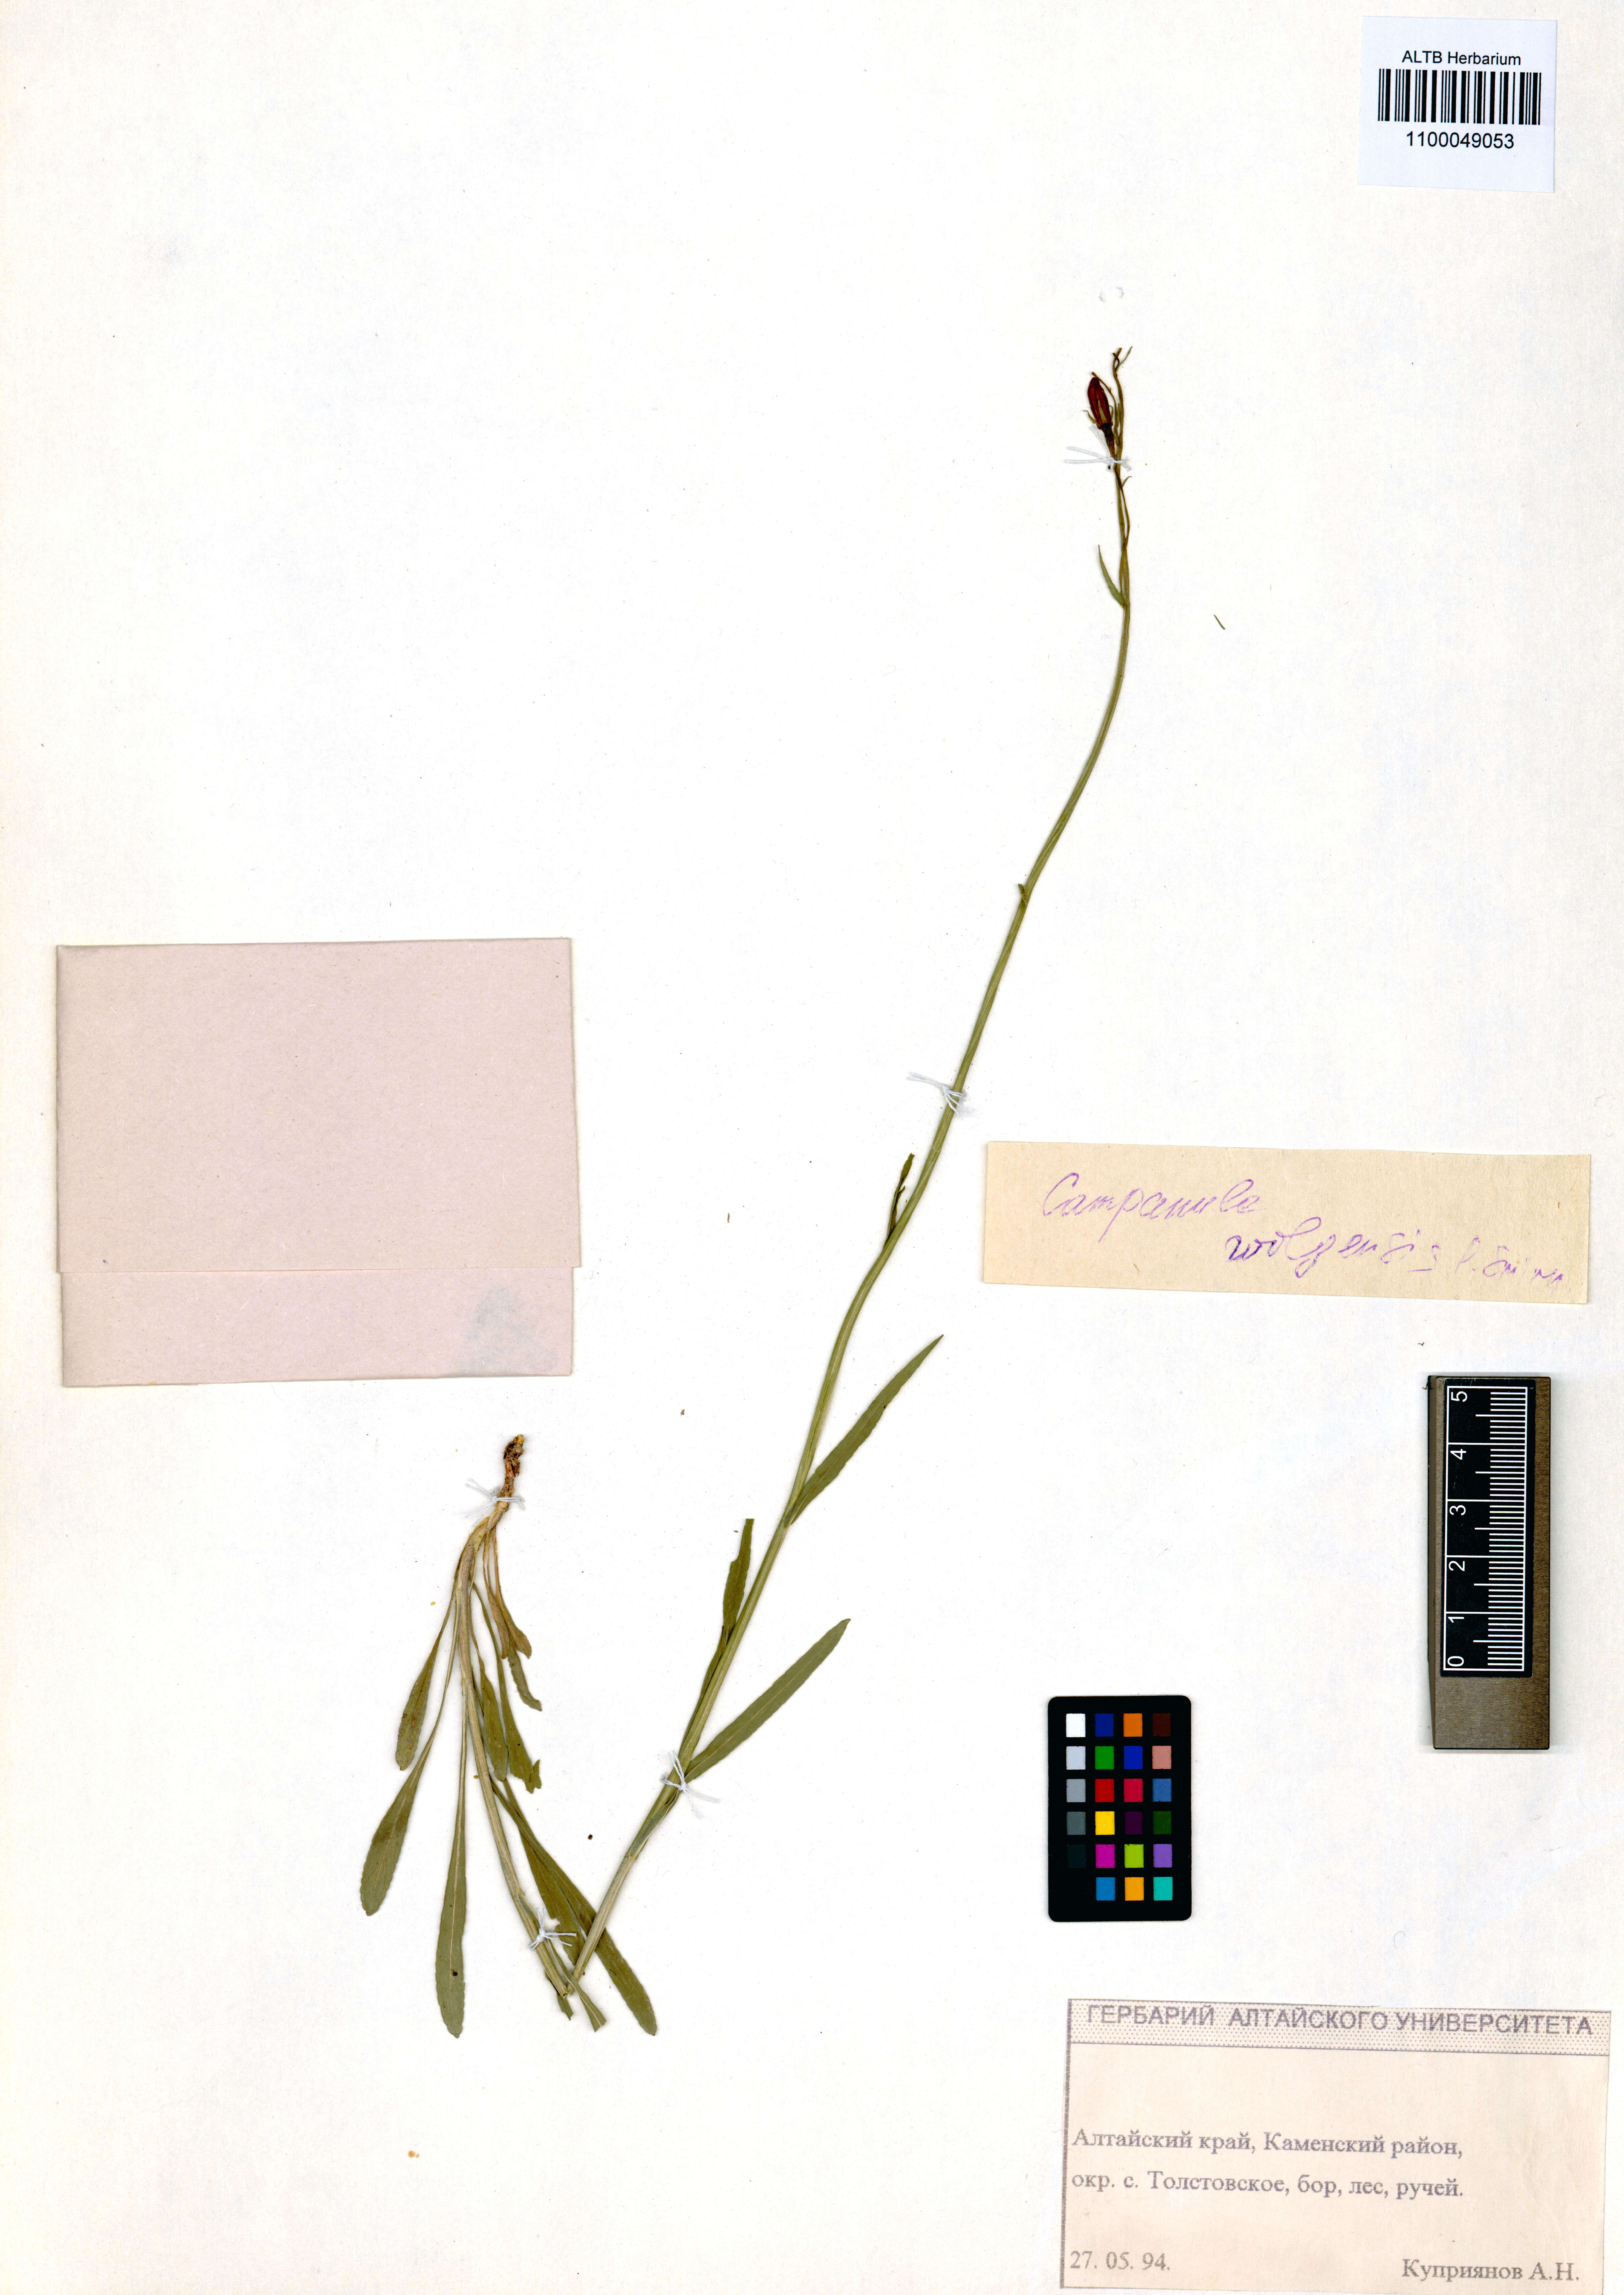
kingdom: Plantae
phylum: Tracheophyta
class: Magnoliopsida
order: Asterales
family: Campanulaceae
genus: Campanula
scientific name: Campanula stevenii
